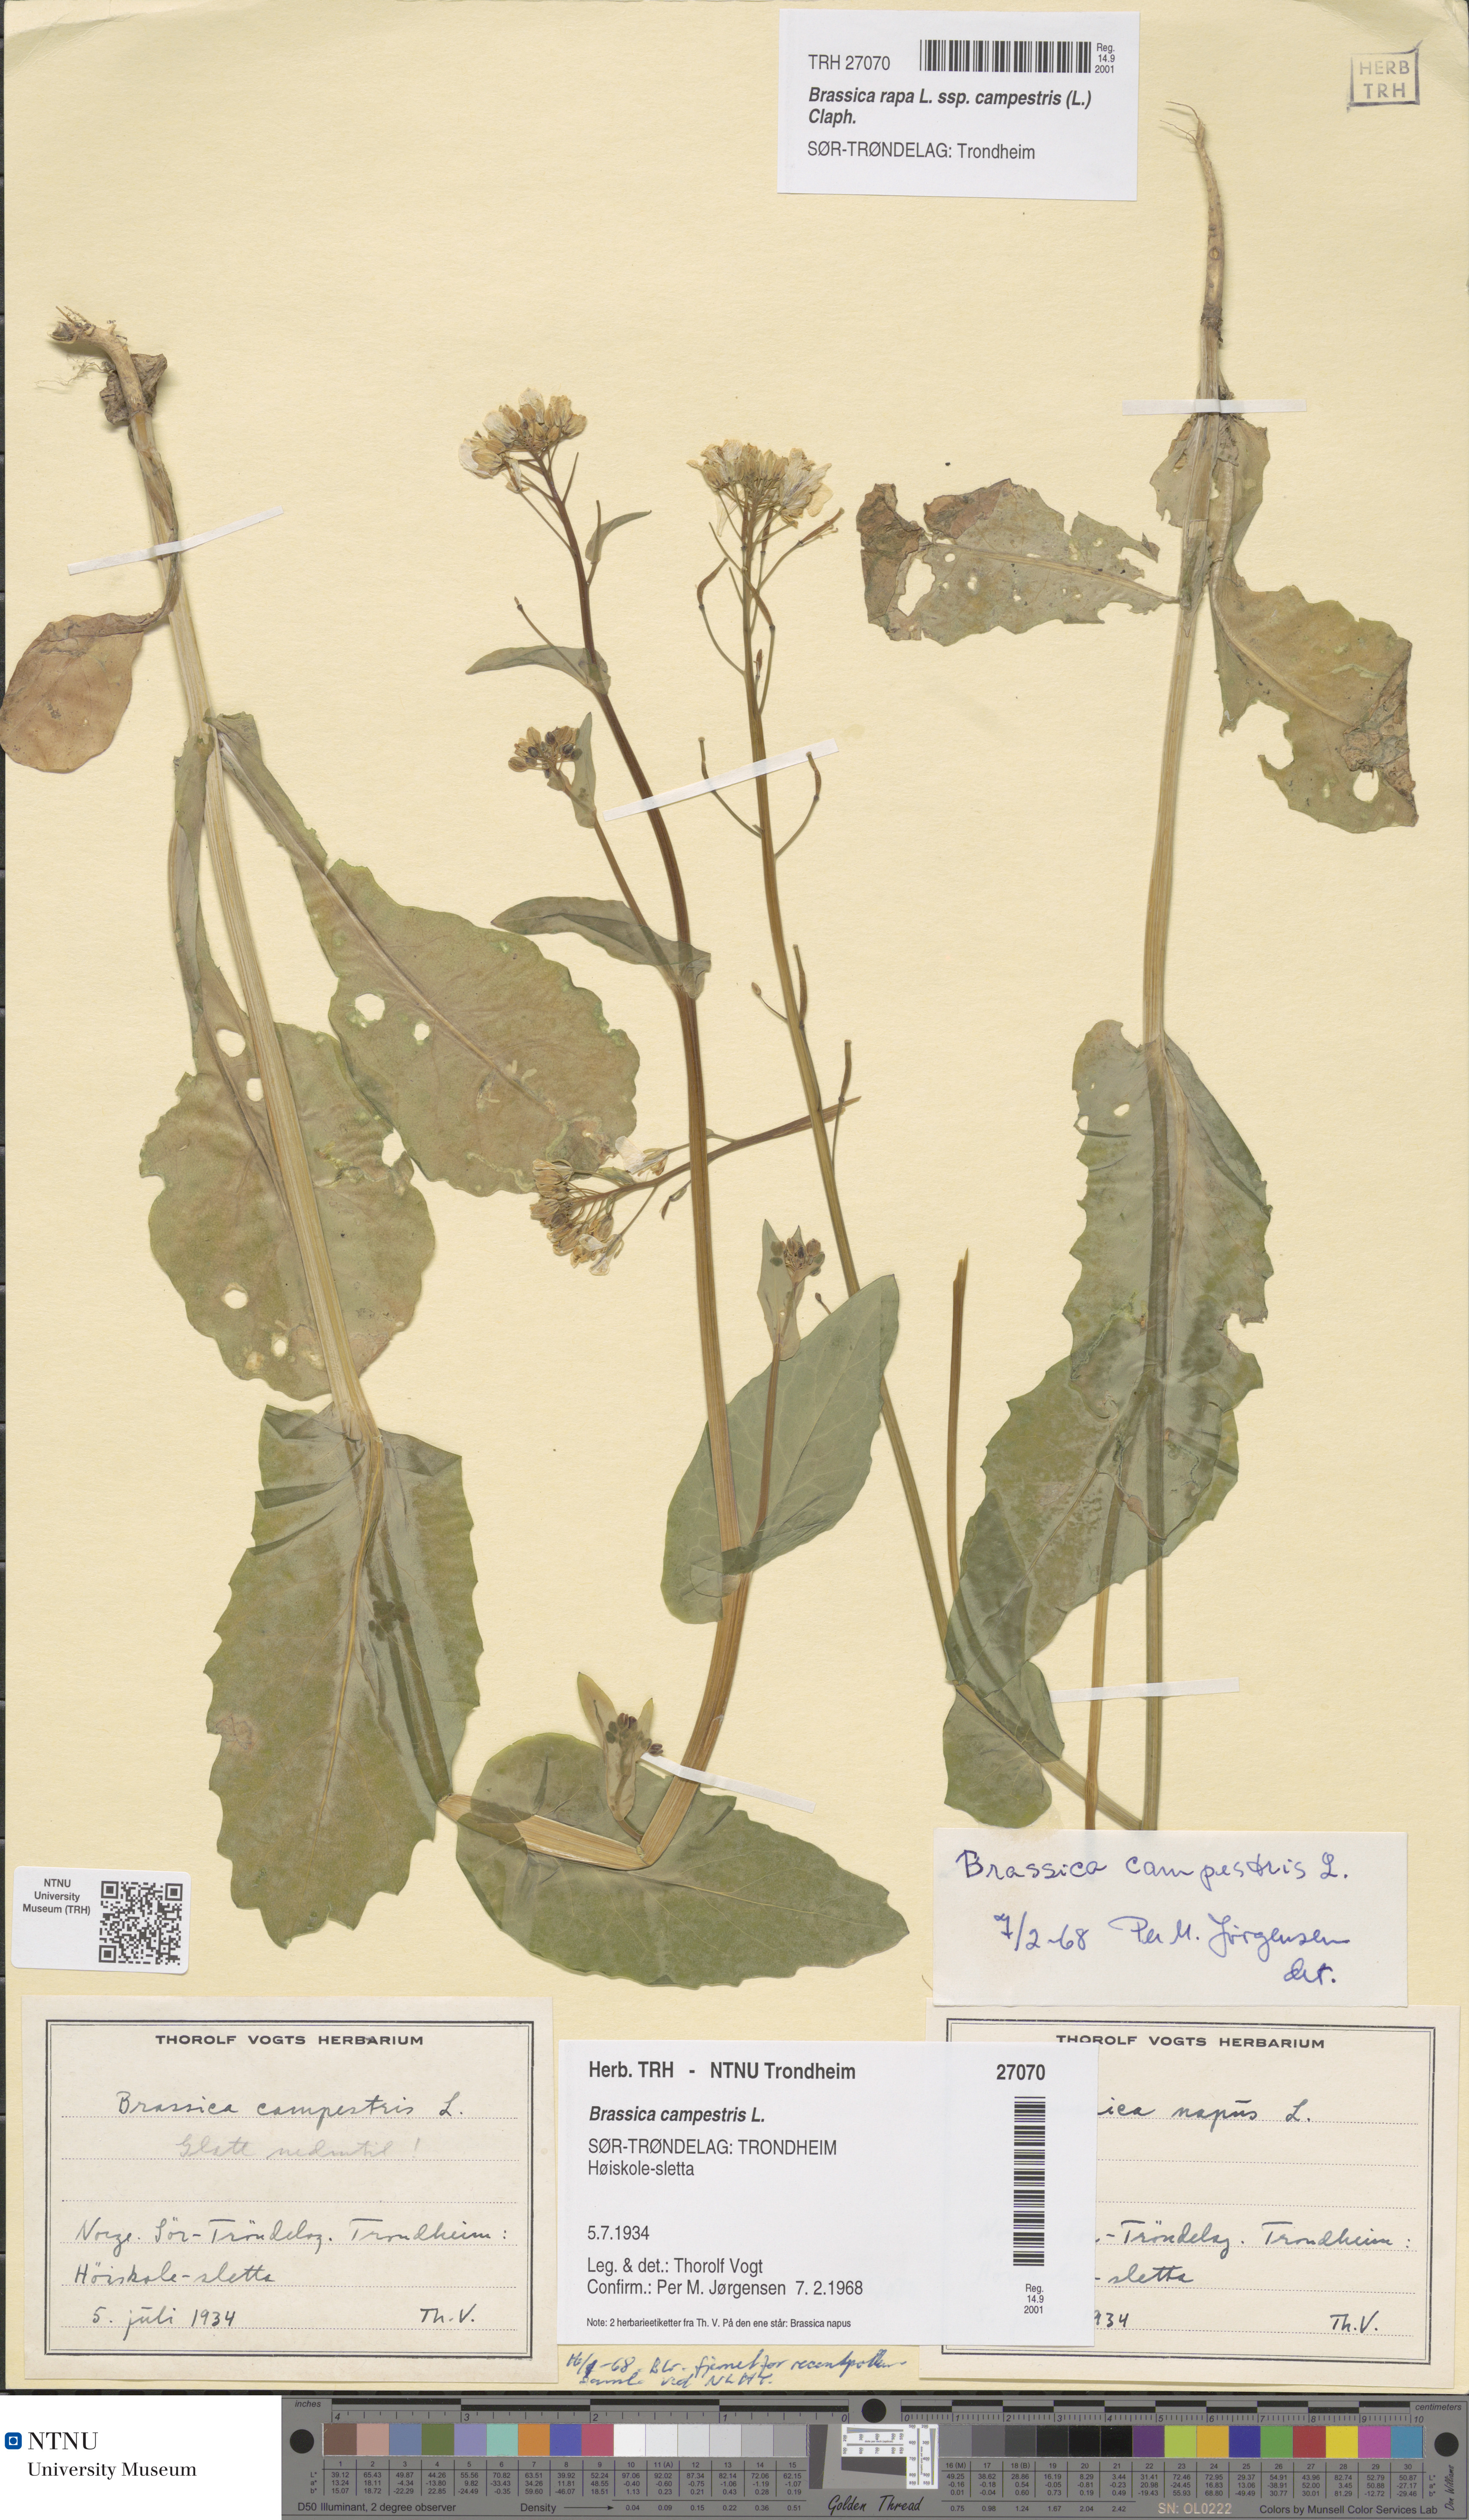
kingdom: Plantae
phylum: Tracheophyta
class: Magnoliopsida
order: Brassicales
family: Brassicaceae
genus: Brassica
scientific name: Brassica rapa
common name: Field mustard
